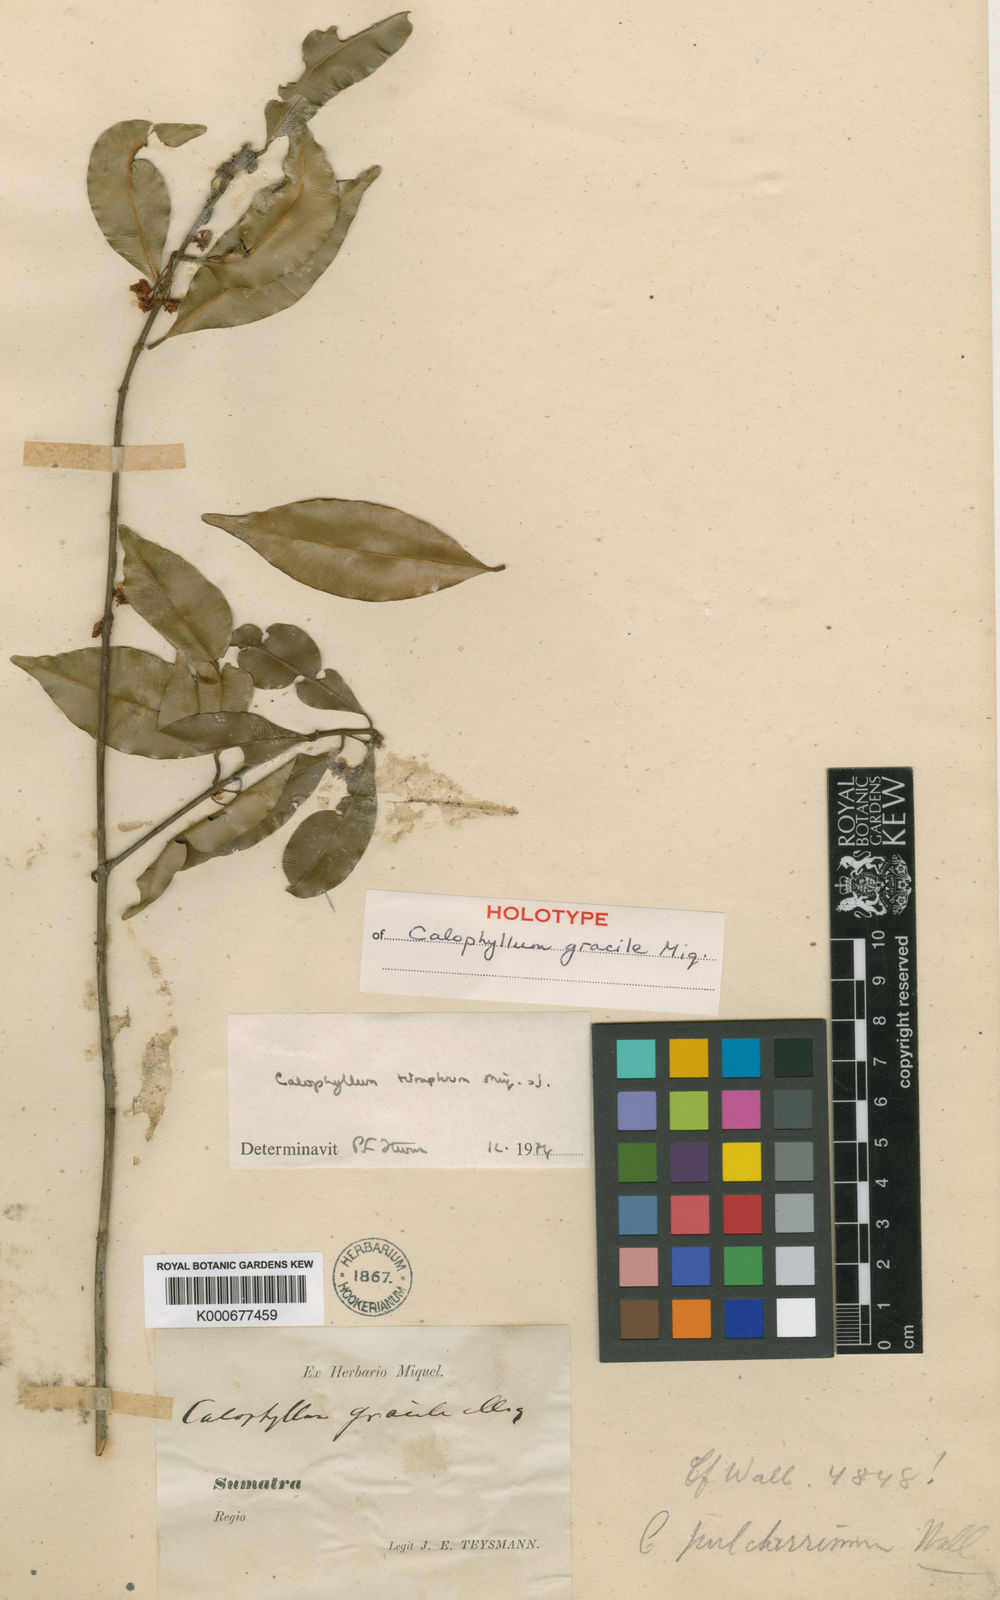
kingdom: Plantae
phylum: Tracheophyta
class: Magnoliopsida
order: Malpighiales
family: Calophyllaceae
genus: Calophyllum
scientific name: Calophyllum tetrapterum
